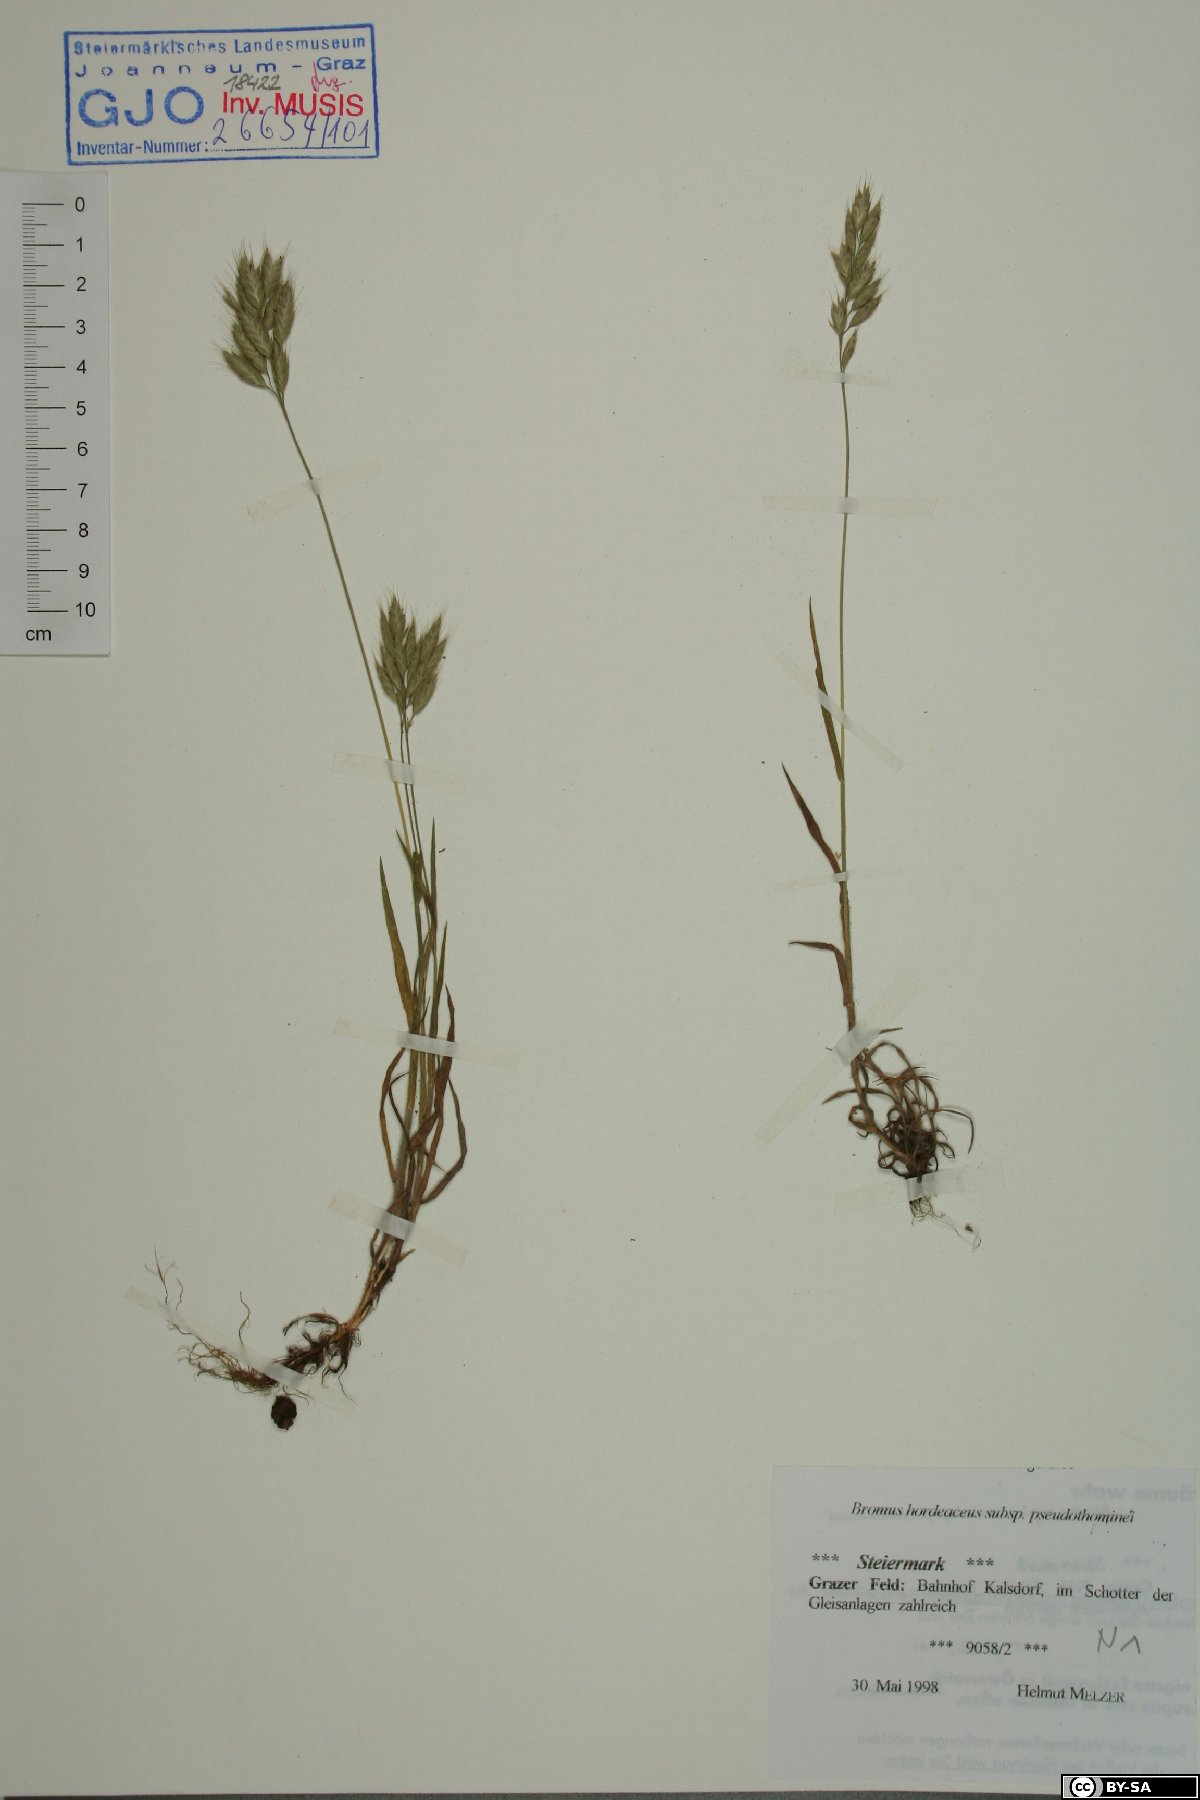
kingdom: Plantae
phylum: Tracheophyta
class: Liliopsida
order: Poales
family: Poaceae
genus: Bromus
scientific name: Bromus ferronii
